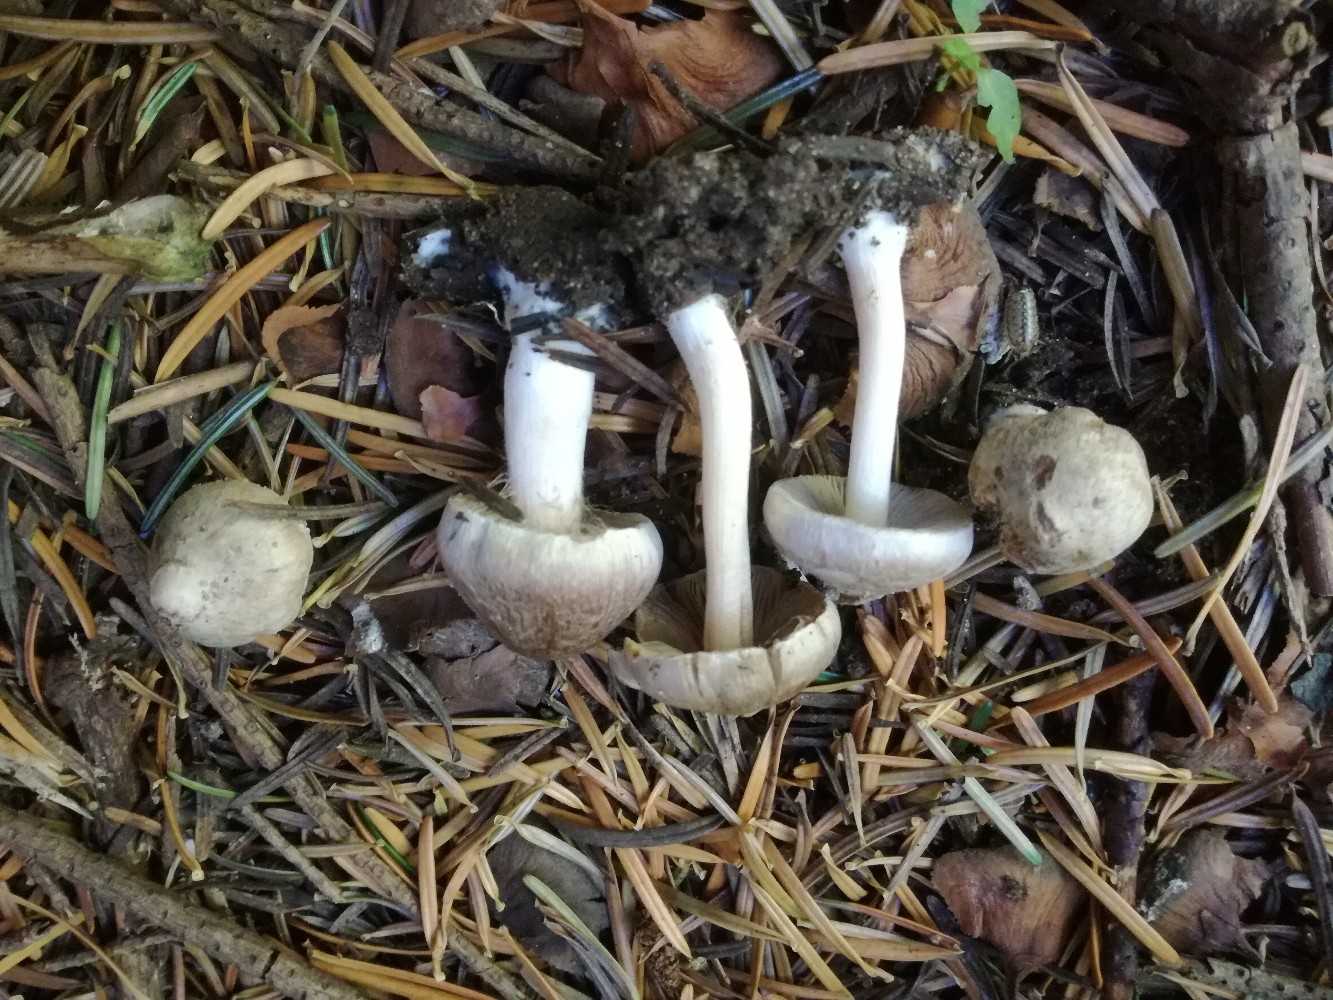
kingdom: Fungi
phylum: Basidiomycota
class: Agaricomycetes
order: Agaricales
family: Inocybaceae
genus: Inocybe
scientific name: Inocybe
